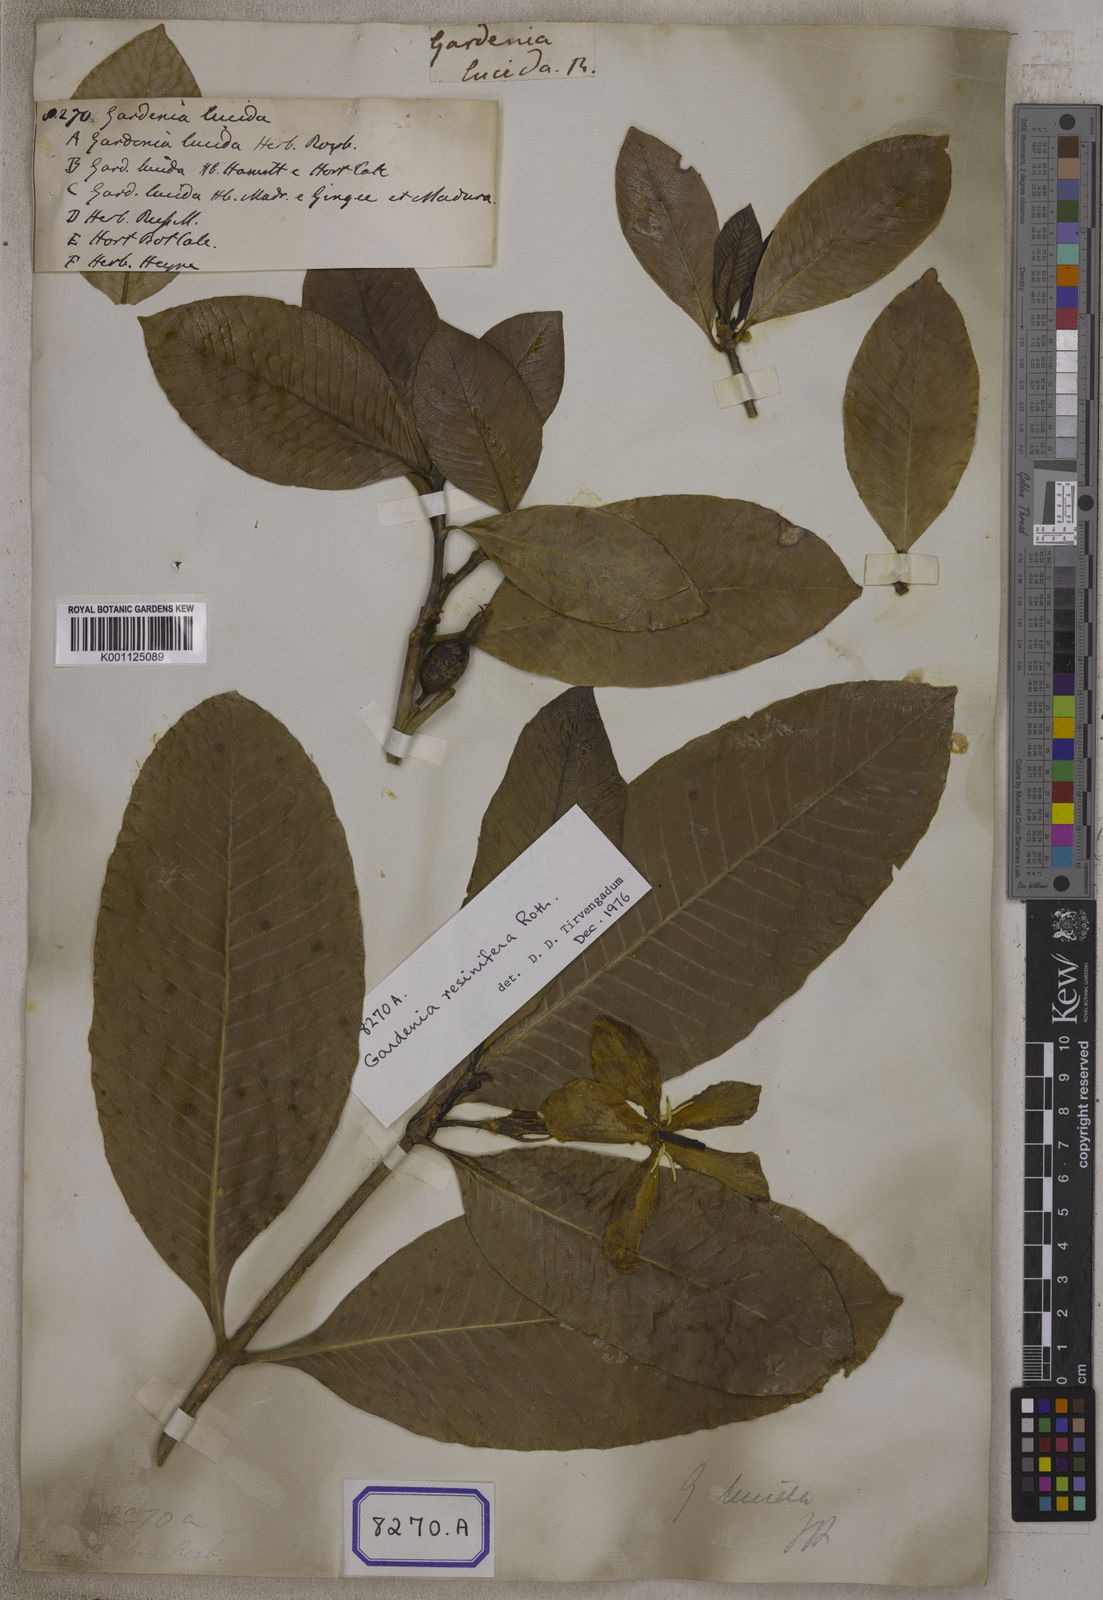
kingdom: Plantae
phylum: Tracheophyta
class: Magnoliopsida
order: Gentianales
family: Rubiaceae
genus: Gardenia
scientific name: Gardenia resinifera
